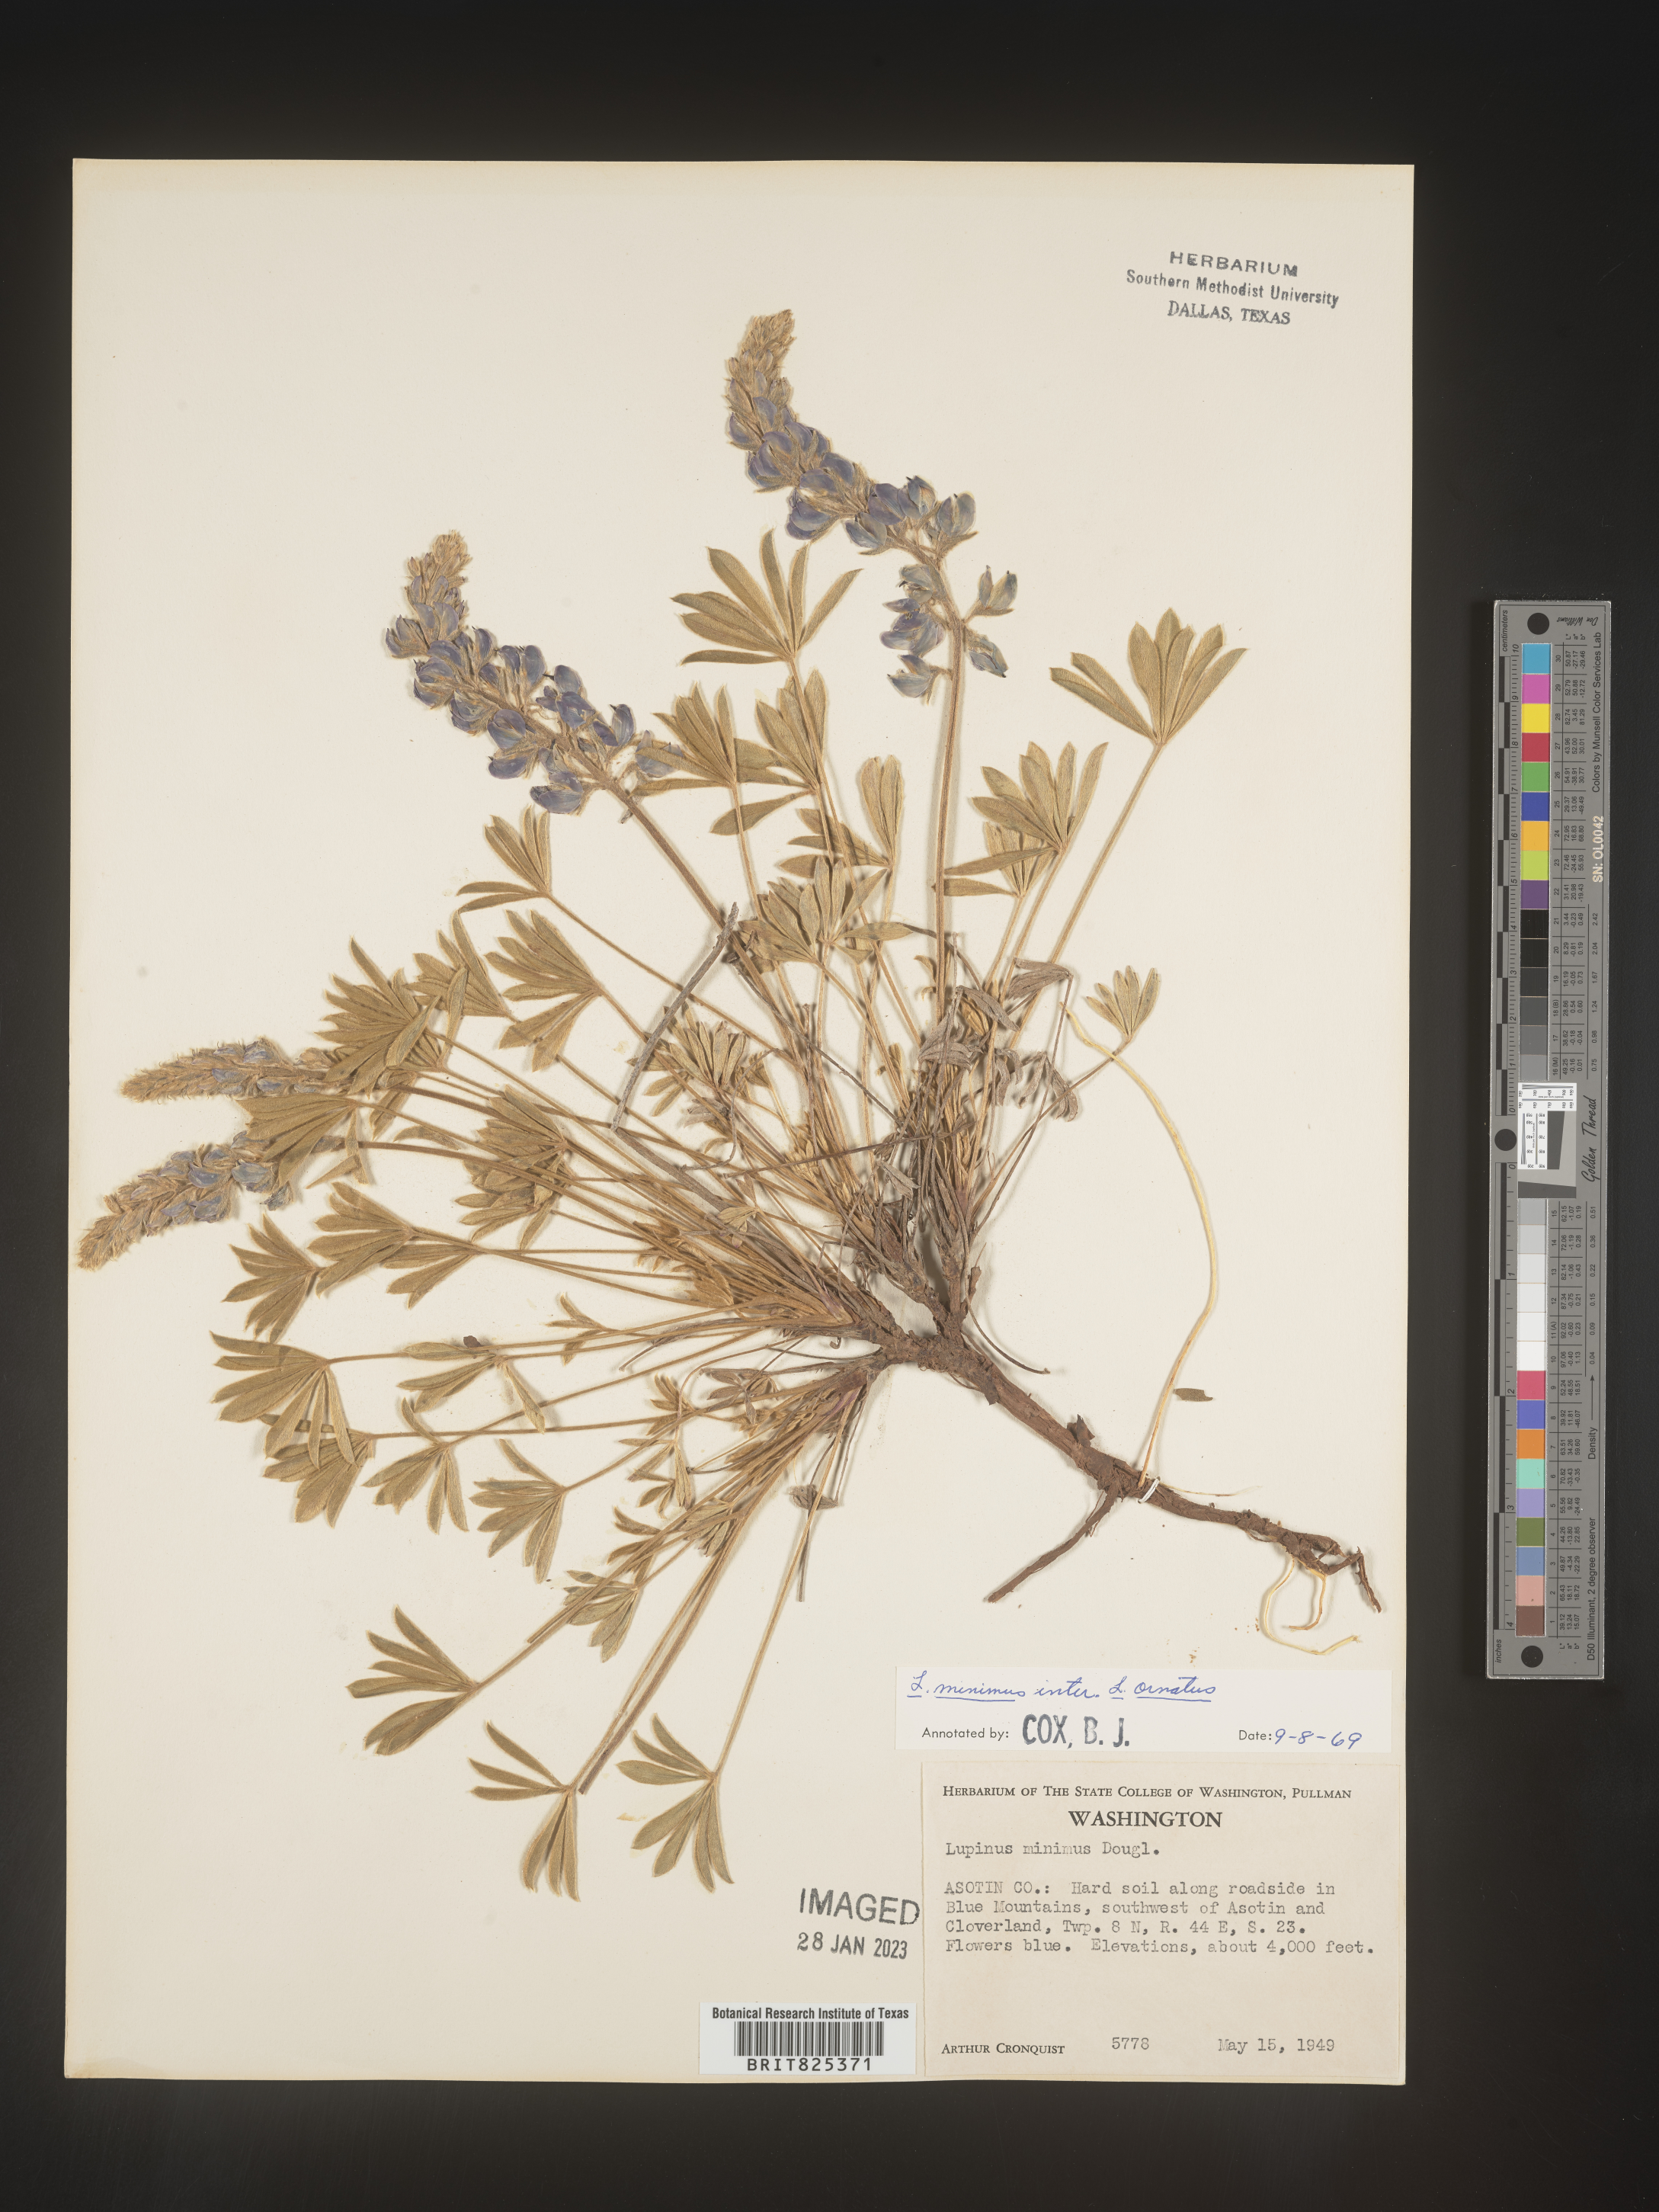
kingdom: Plantae
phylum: Tracheophyta
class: Magnoliopsida
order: Fabales
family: Fabaceae
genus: Lupinus
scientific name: Lupinus
